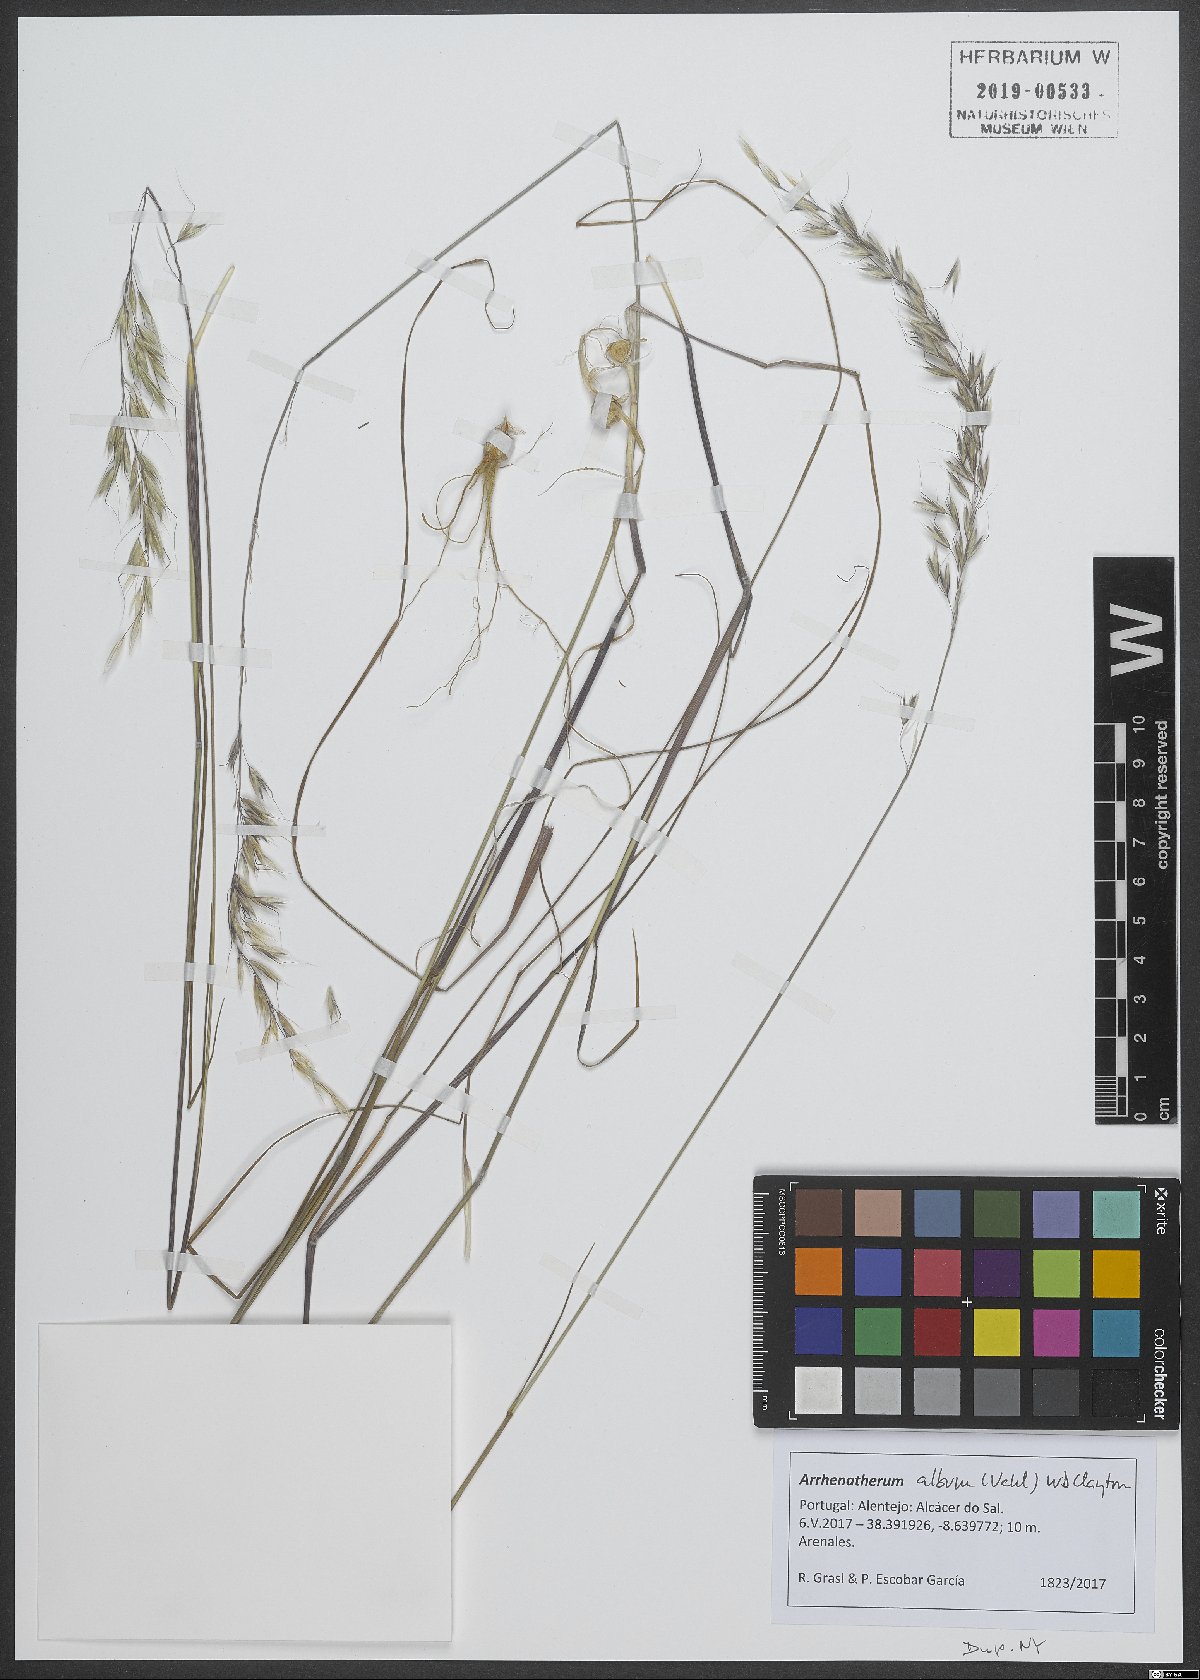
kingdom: Plantae
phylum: Tracheophyta
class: Liliopsida
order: Poales
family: Poaceae
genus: Arrhenatherum
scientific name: Arrhenatherum album
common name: Tall oat grass
